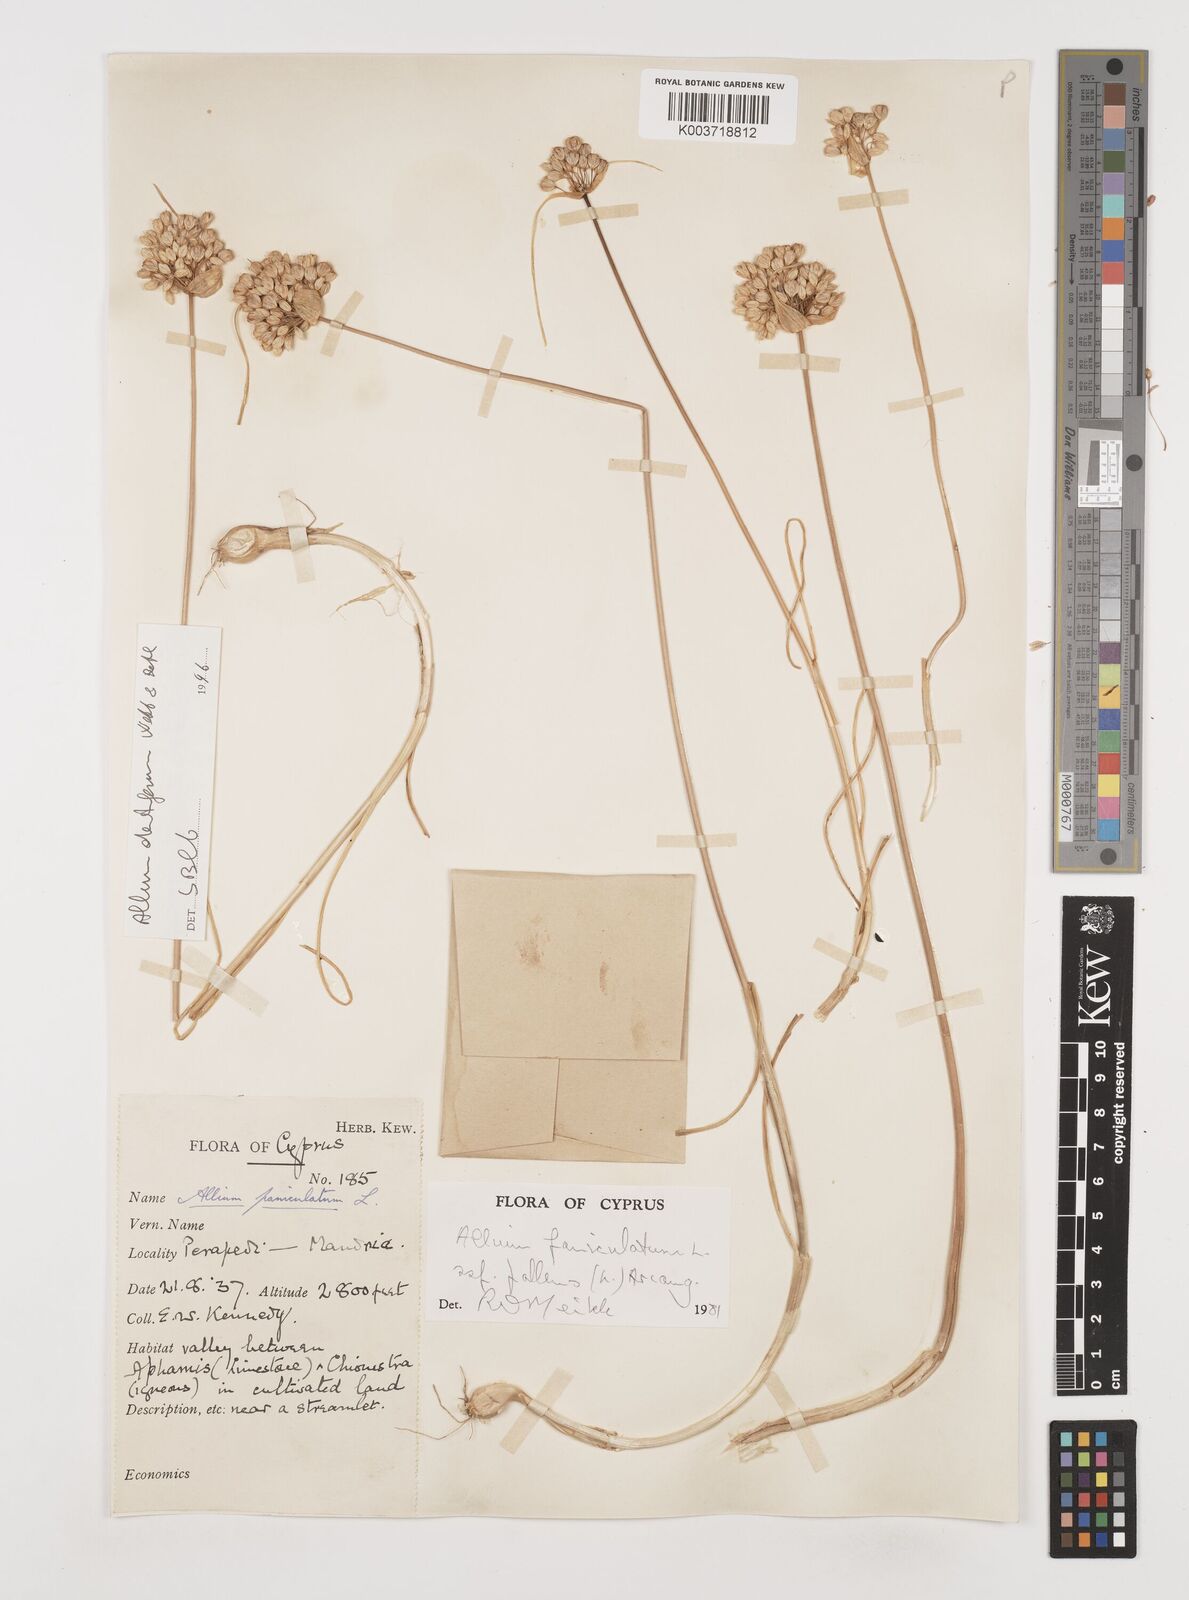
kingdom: Plantae
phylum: Tracheophyta
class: Liliopsida
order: Asparagales
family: Amaryllidaceae
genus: Allium
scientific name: Allium paniculatum
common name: Pale garlic
